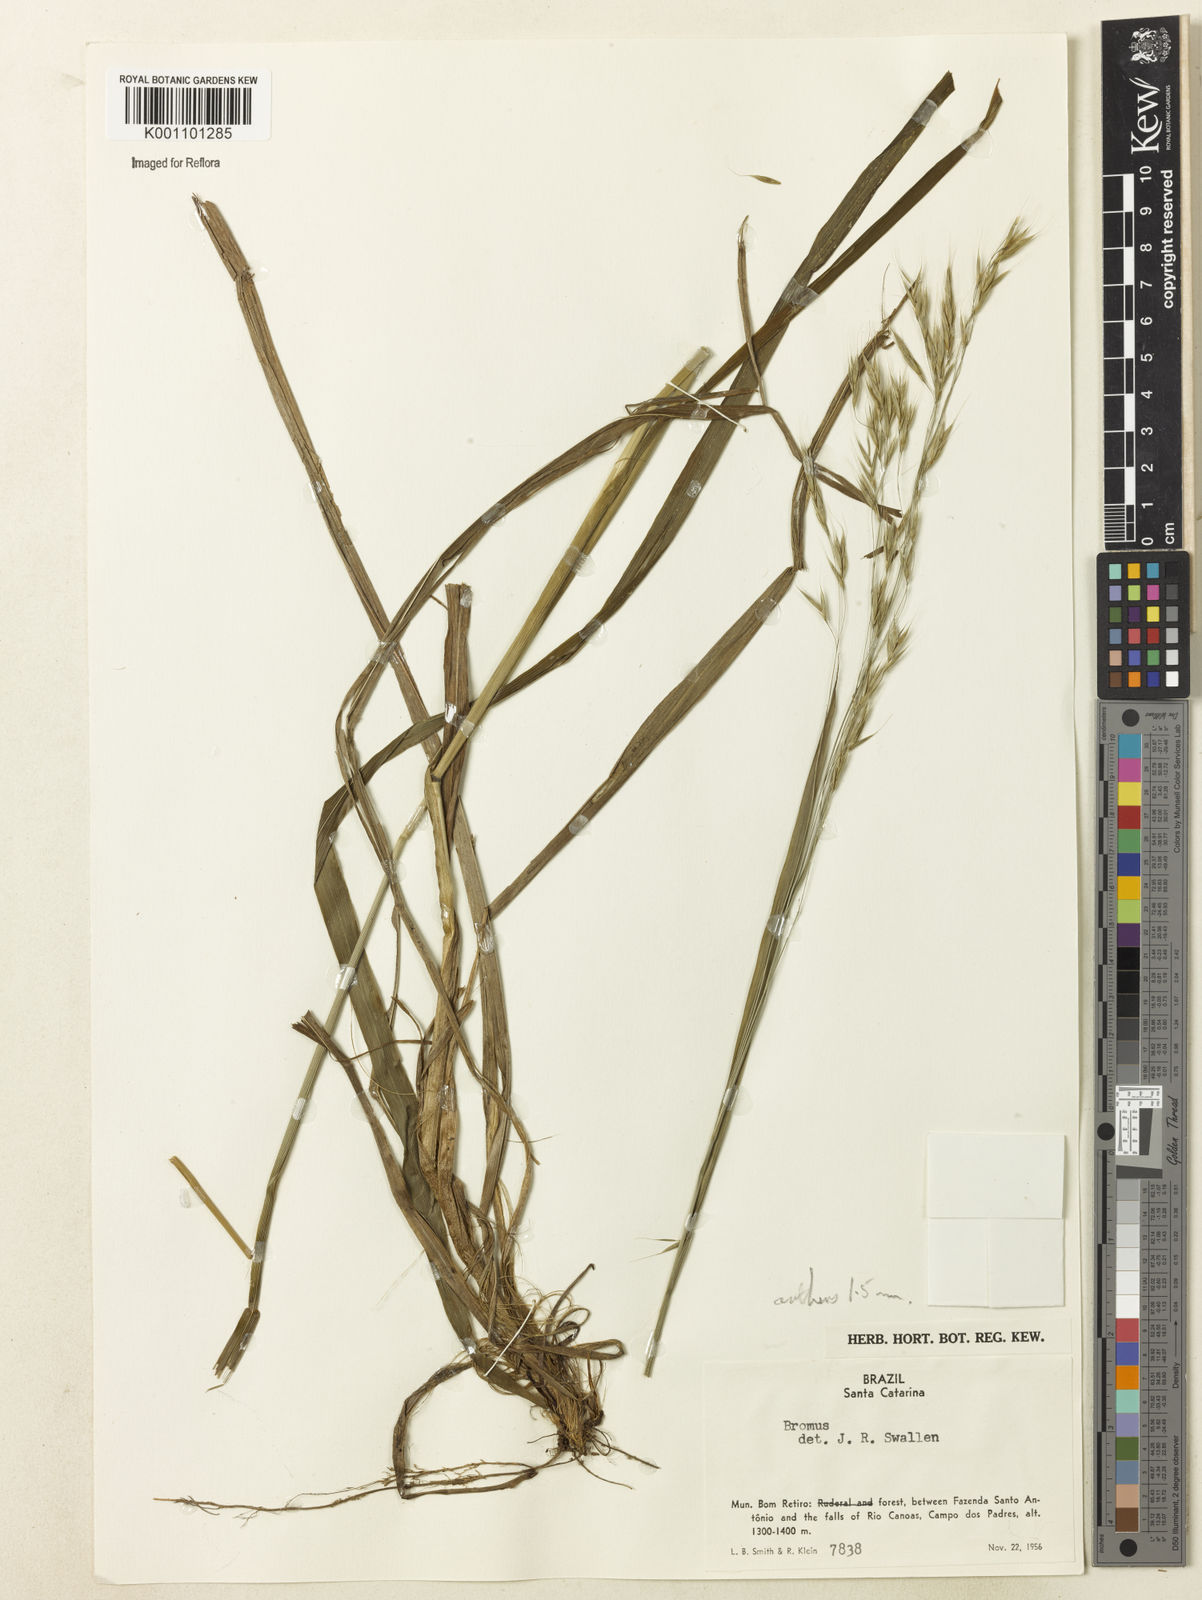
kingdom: Plantae
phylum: Tracheophyta
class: Liliopsida
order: Poales
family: Poaceae
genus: Bromus
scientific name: Bromus
